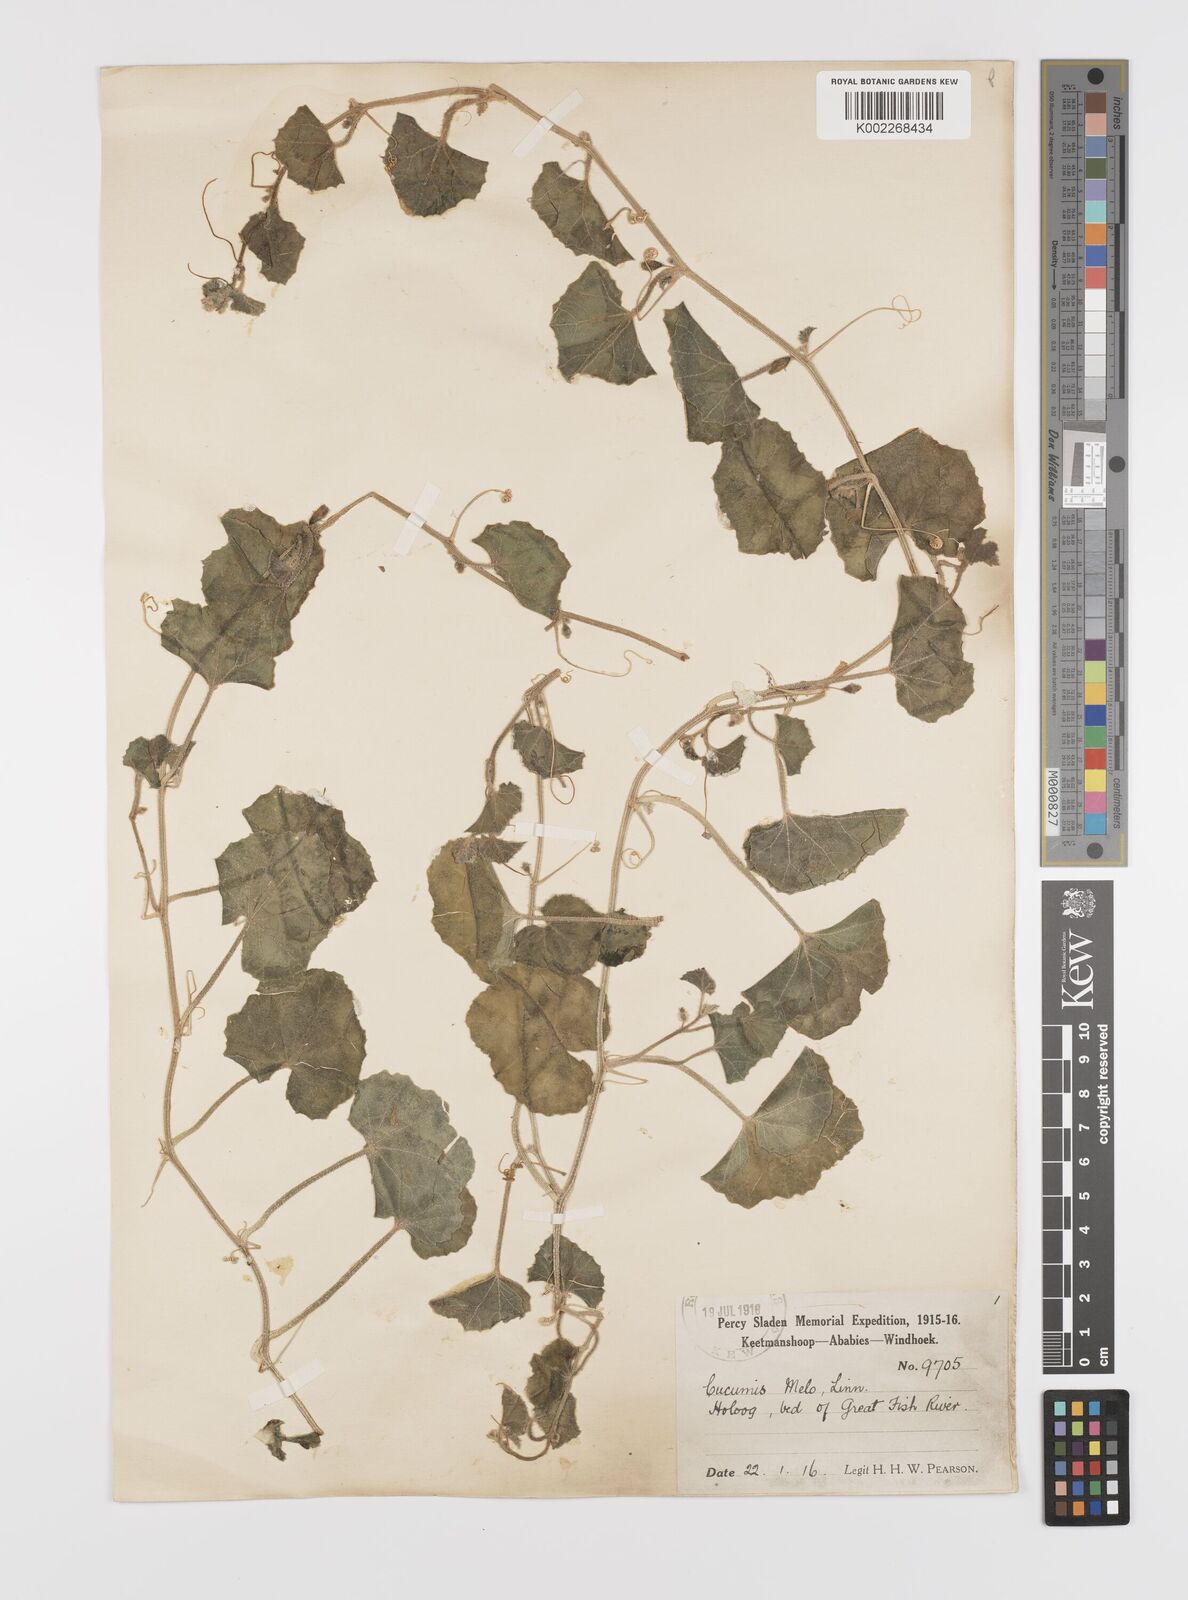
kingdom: Plantae
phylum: Tracheophyta
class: Magnoliopsida
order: Cucurbitales
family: Cucurbitaceae
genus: Cucumis
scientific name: Cucumis sagittatus
